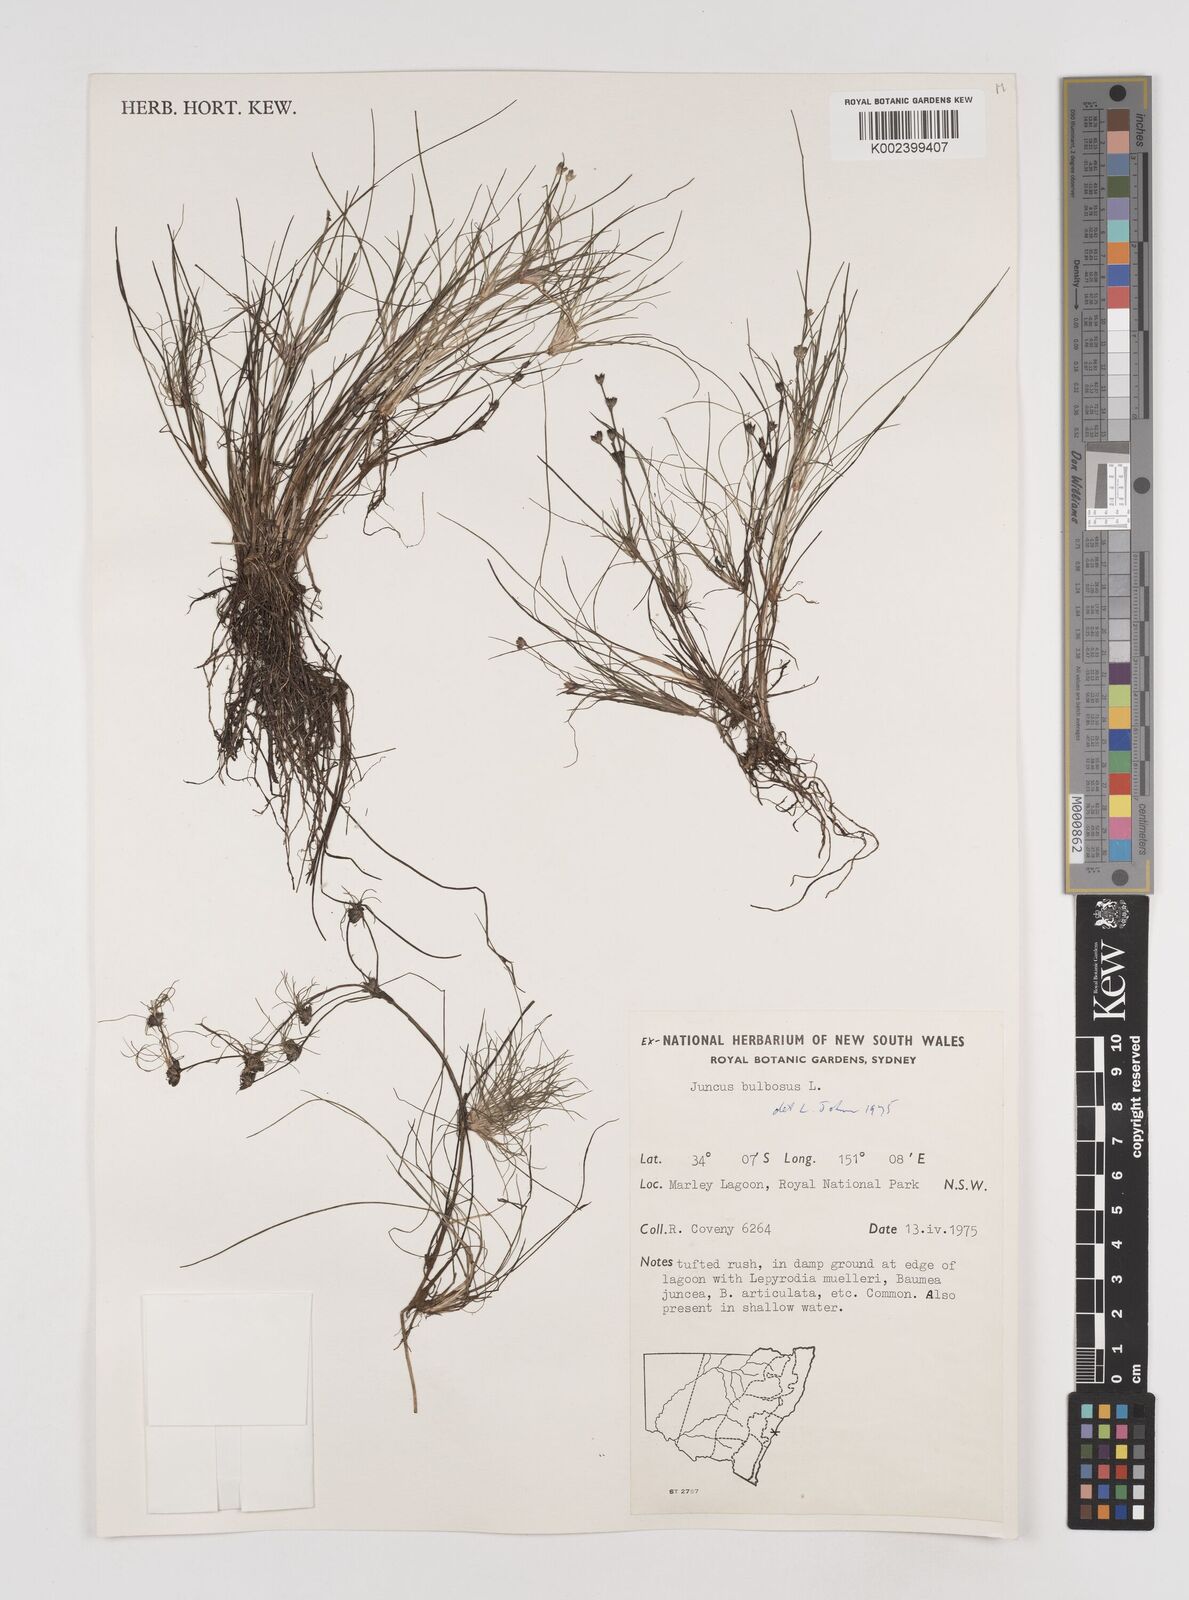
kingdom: Plantae
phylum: Tracheophyta
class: Liliopsida
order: Poales
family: Juncaceae
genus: Juncus
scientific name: Juncus bulbosus
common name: Bulbous rush
